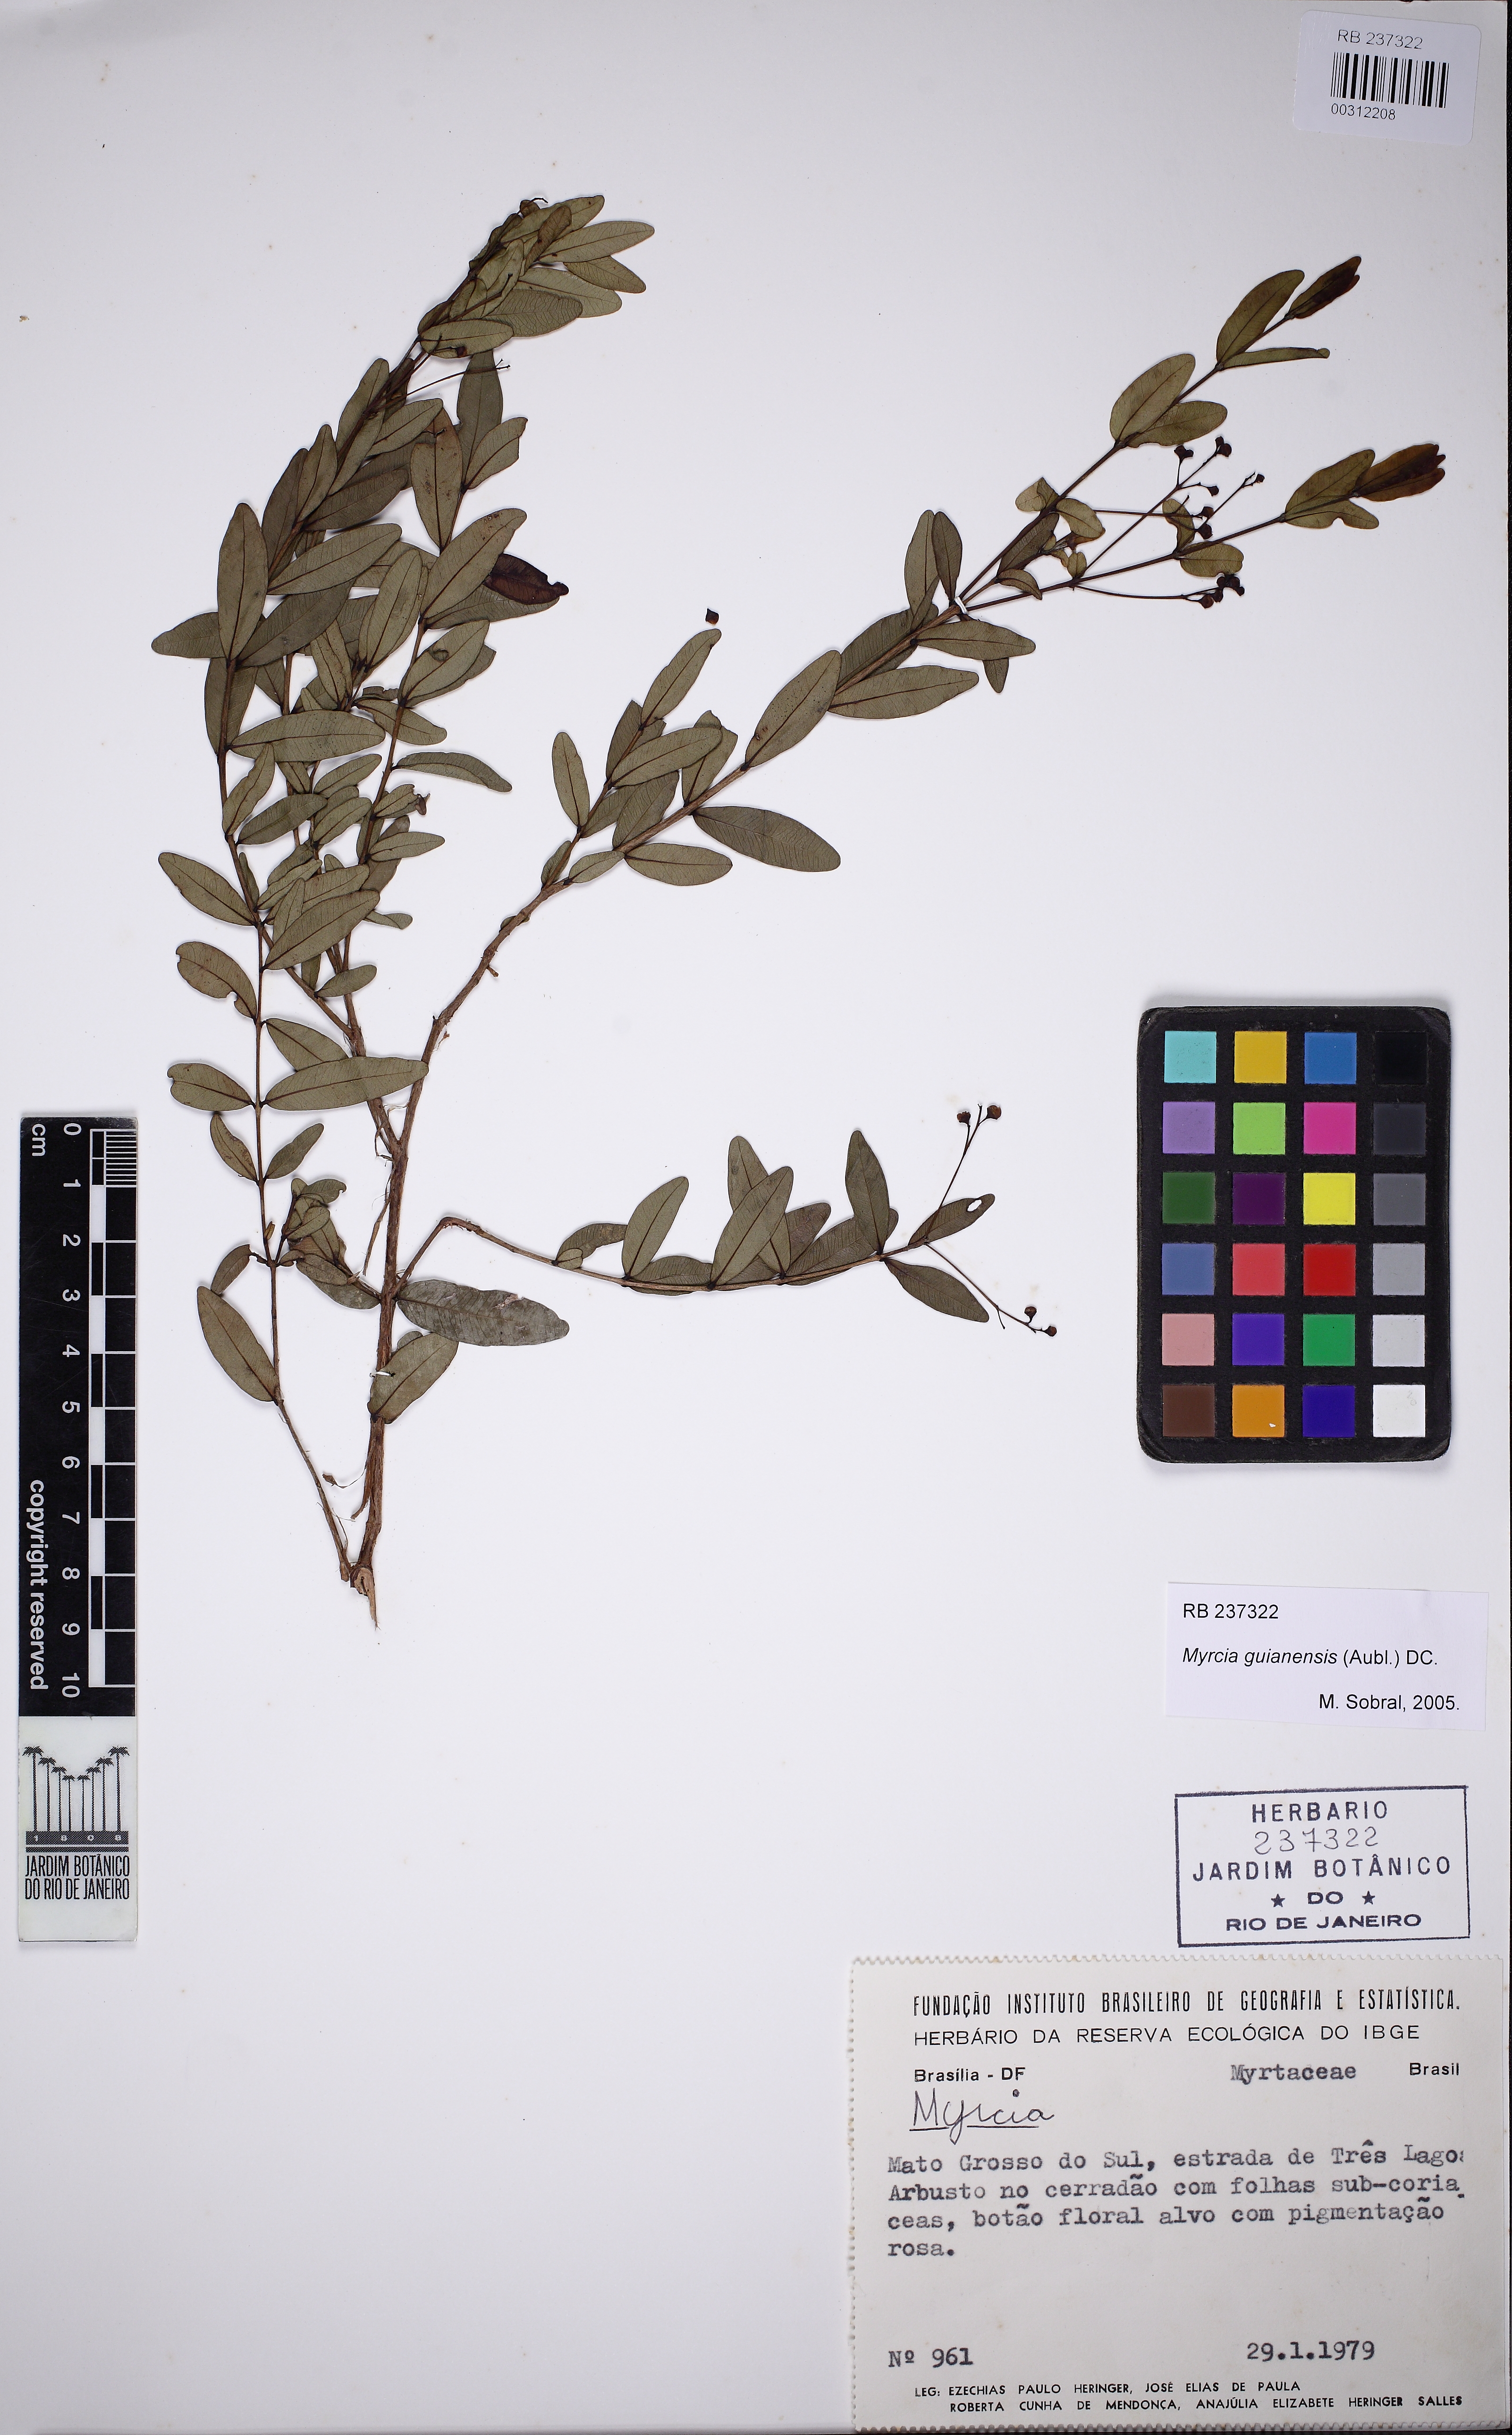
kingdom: Plantae
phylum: Tracheophyta
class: Magnoliopsida
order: Myrtales
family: Myrtaceae
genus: Myrcia
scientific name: Myrcia rubella
